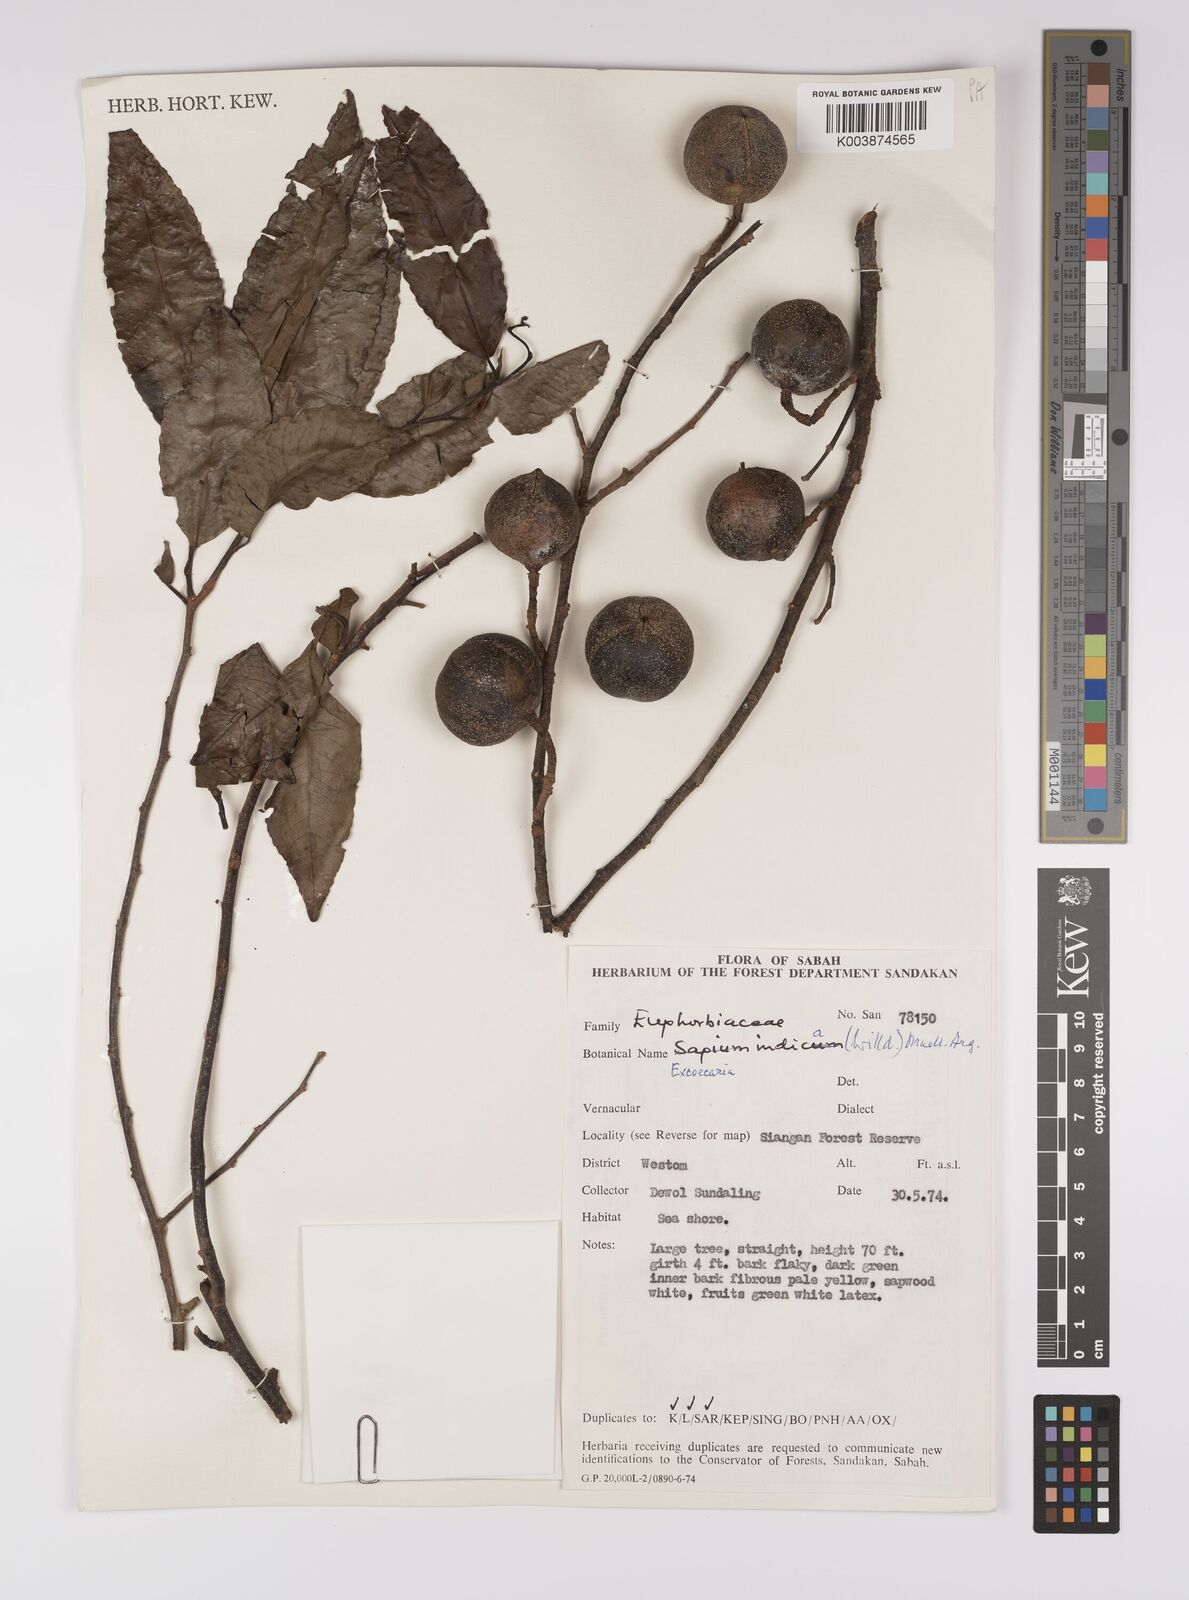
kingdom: Plantae
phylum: Tracheophyta
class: Magnoliopsida
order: Malpighiales
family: Euphorbiaceae
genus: Shirakiopsis
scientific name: Shirakiopsis indica
